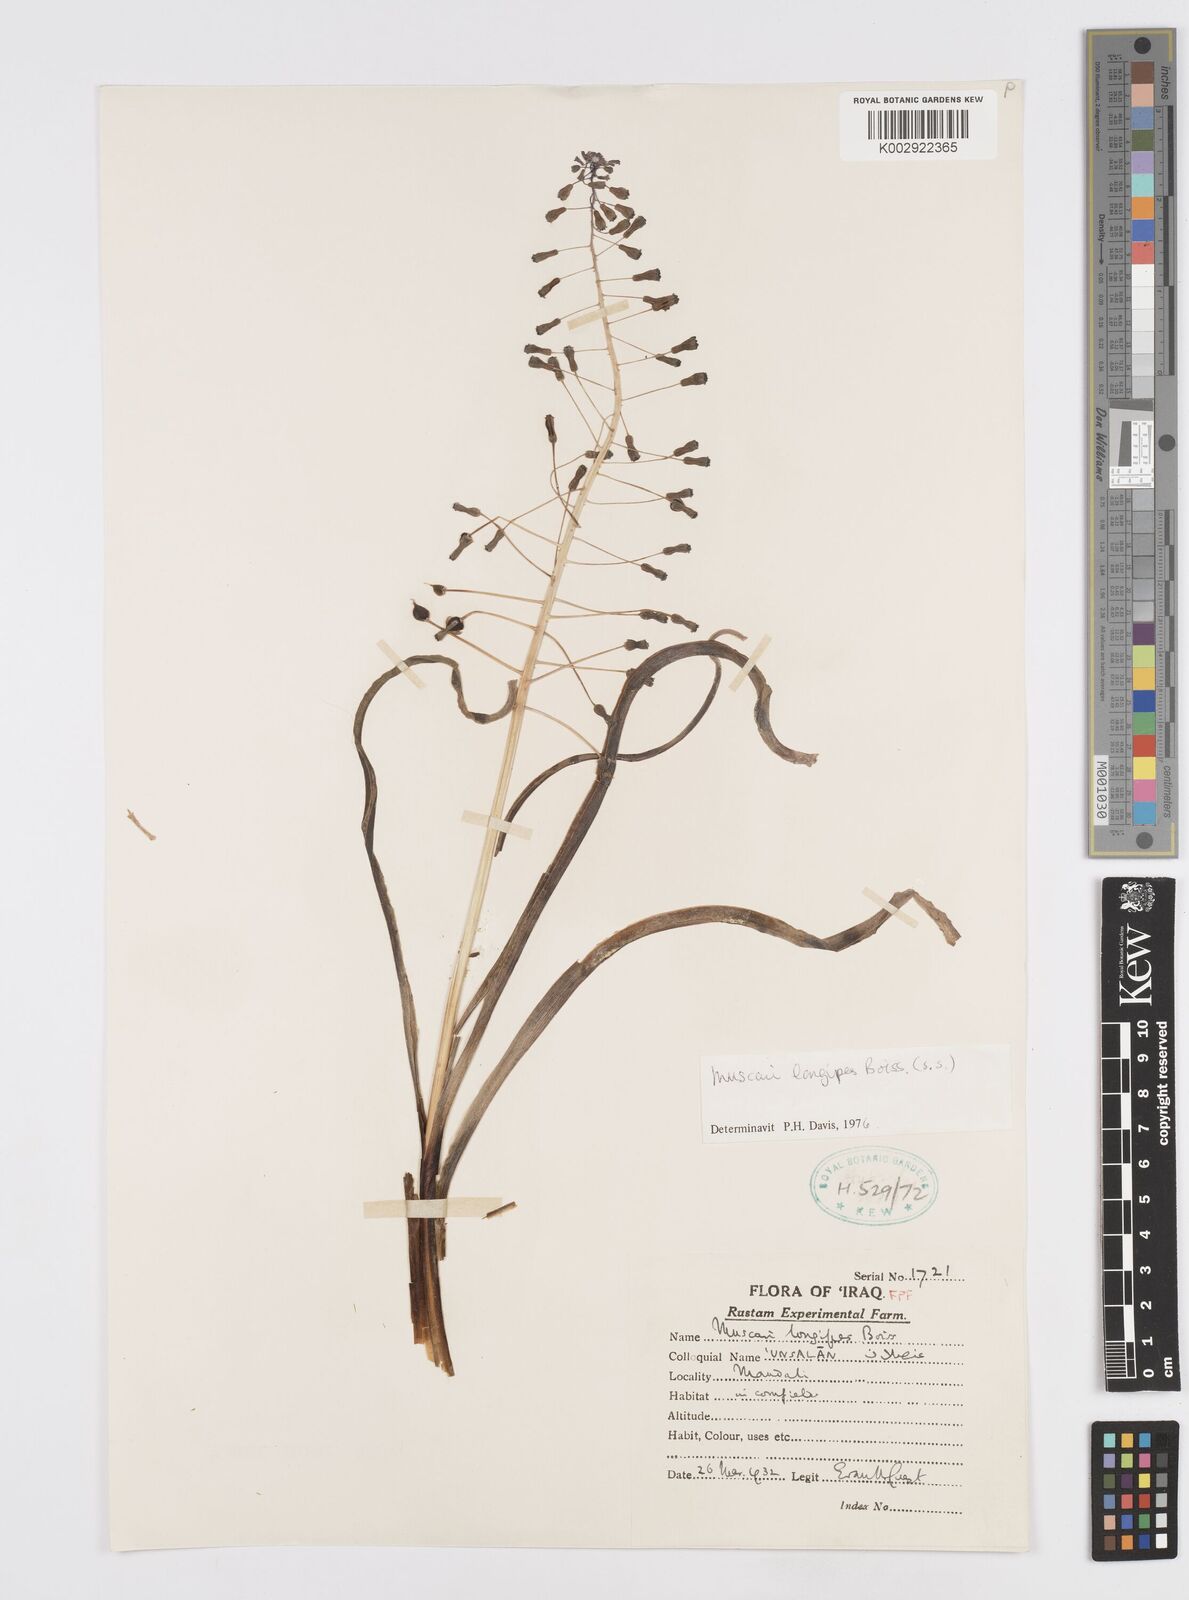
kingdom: Plantae
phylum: Tracheophyta
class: Liliopsida
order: Asparagales
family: Asparagaceae
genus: Muscari
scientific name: Muscari longipes
